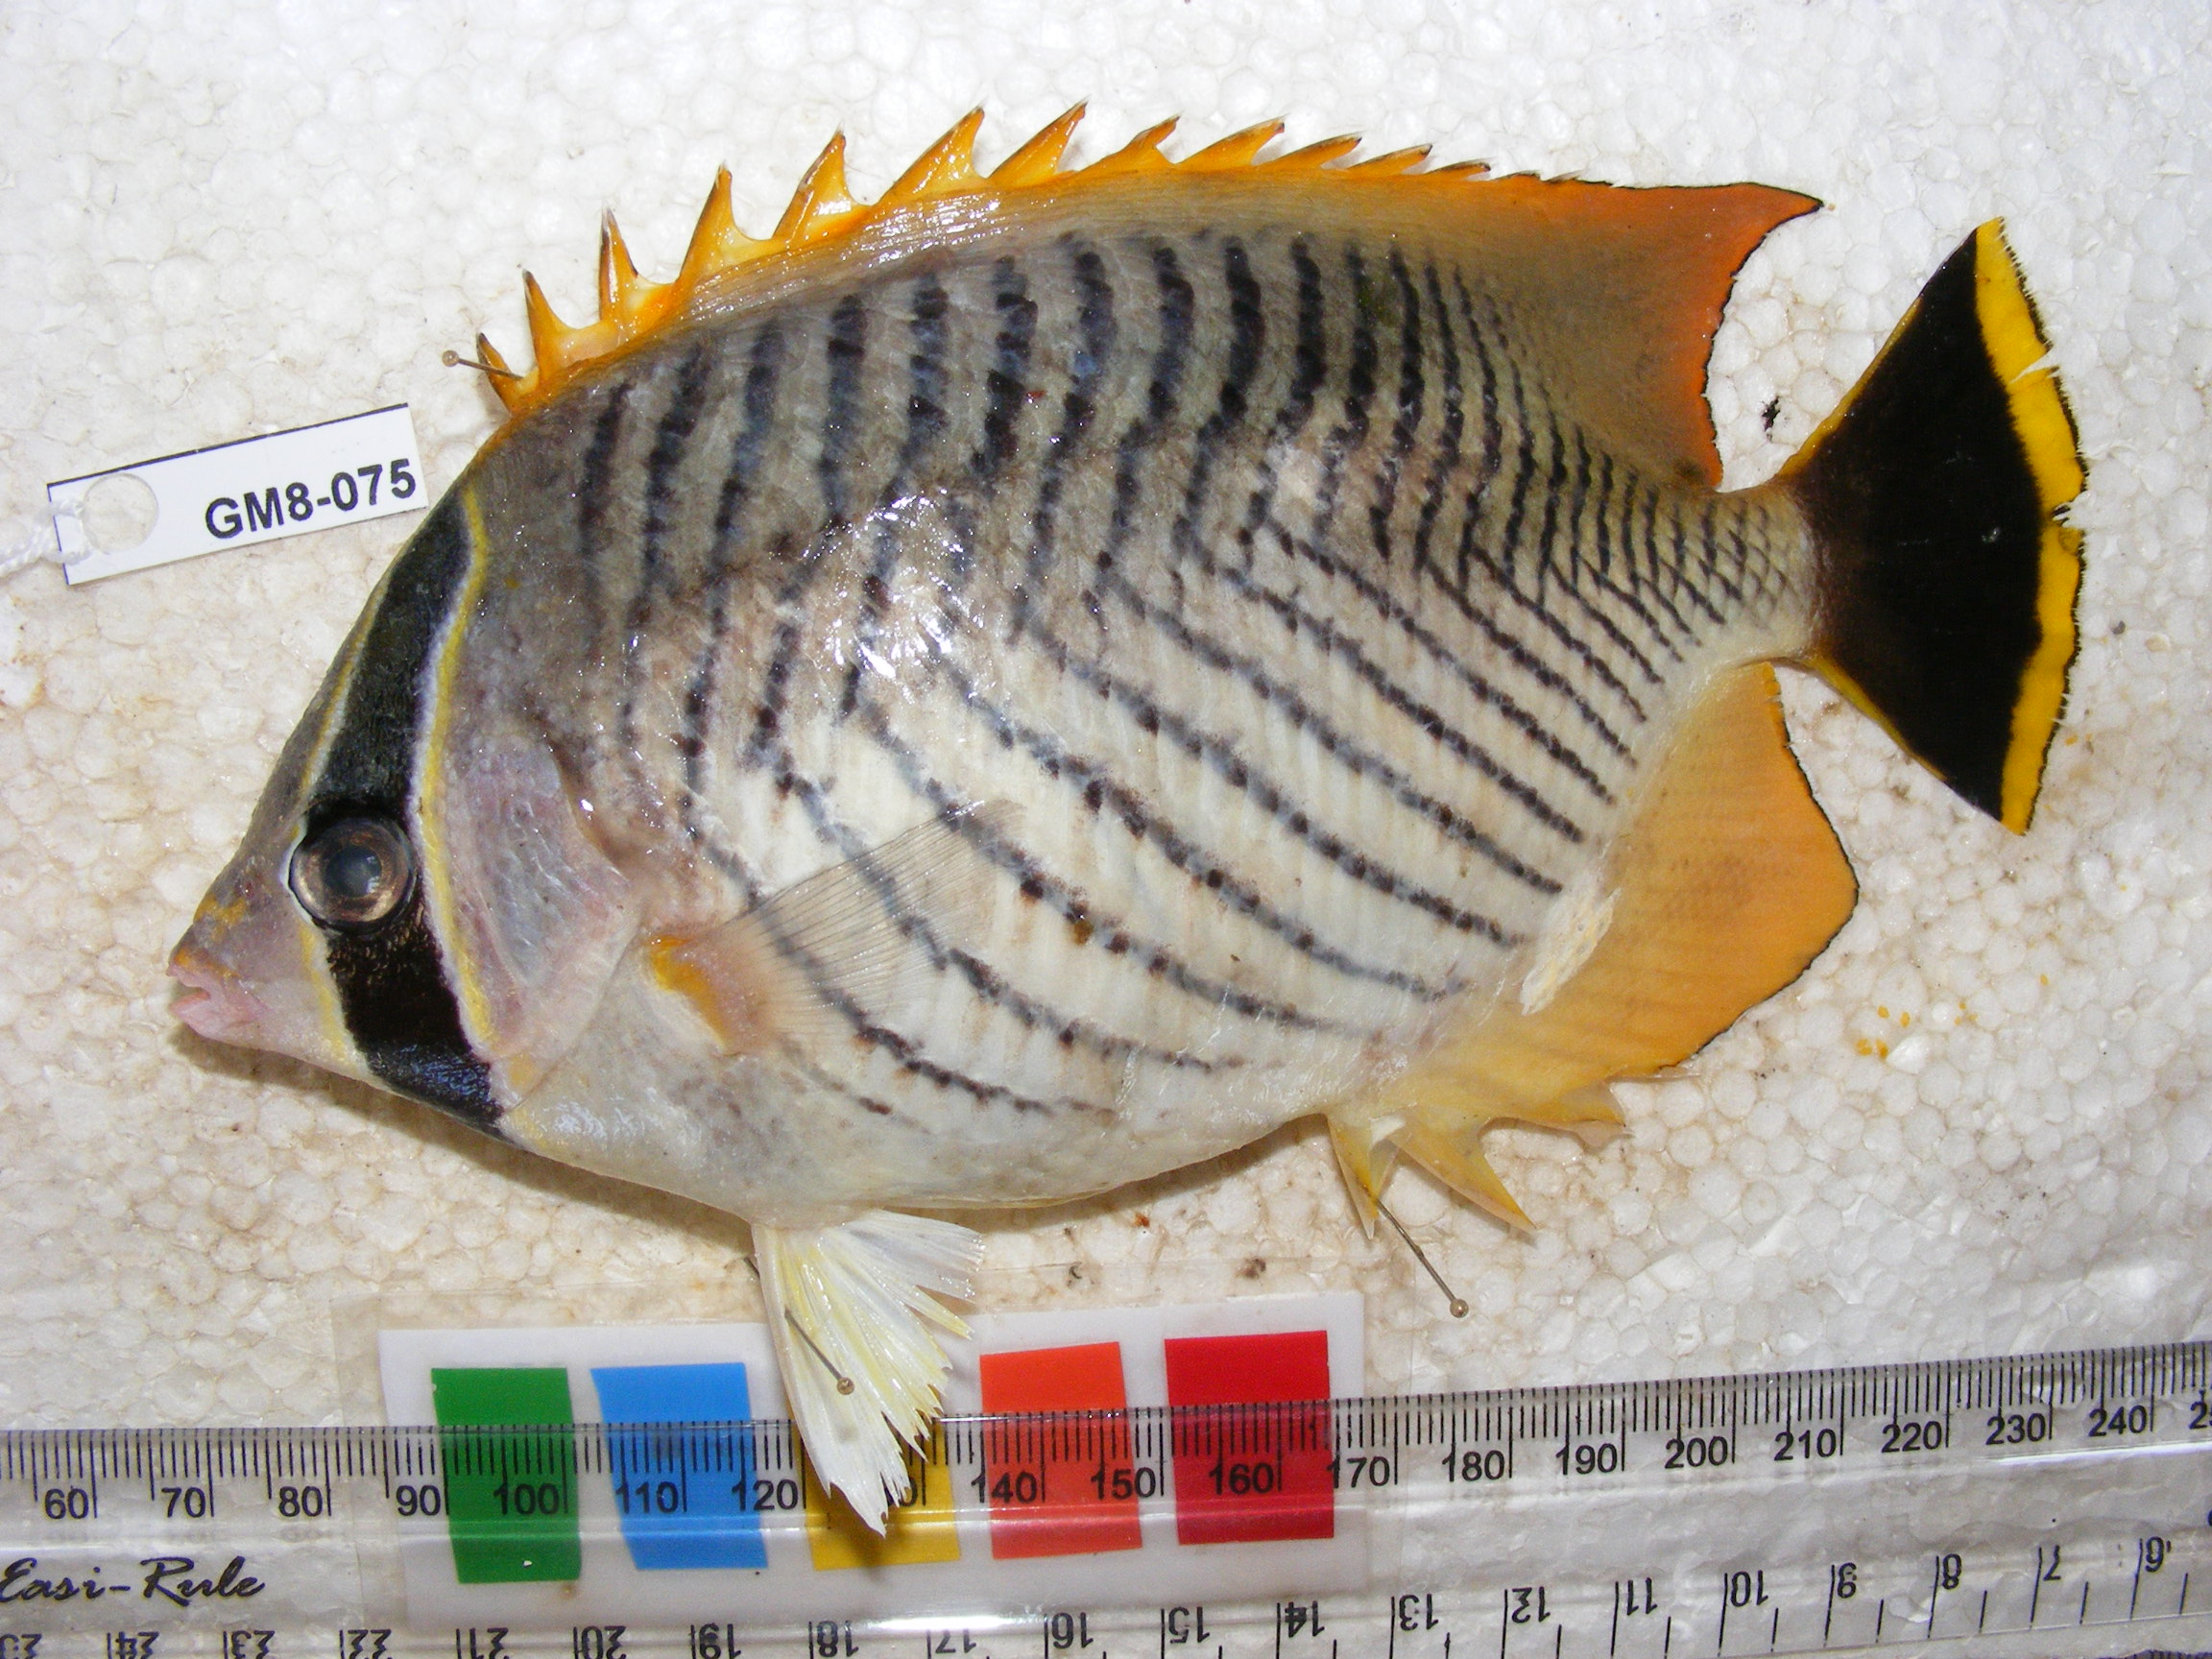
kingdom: Animalia
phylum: Chordata
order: Perciformes
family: Chaetodontidae
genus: Chaetodon
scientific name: Chaetodon trifascialis
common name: Chevroned butterflyfish
